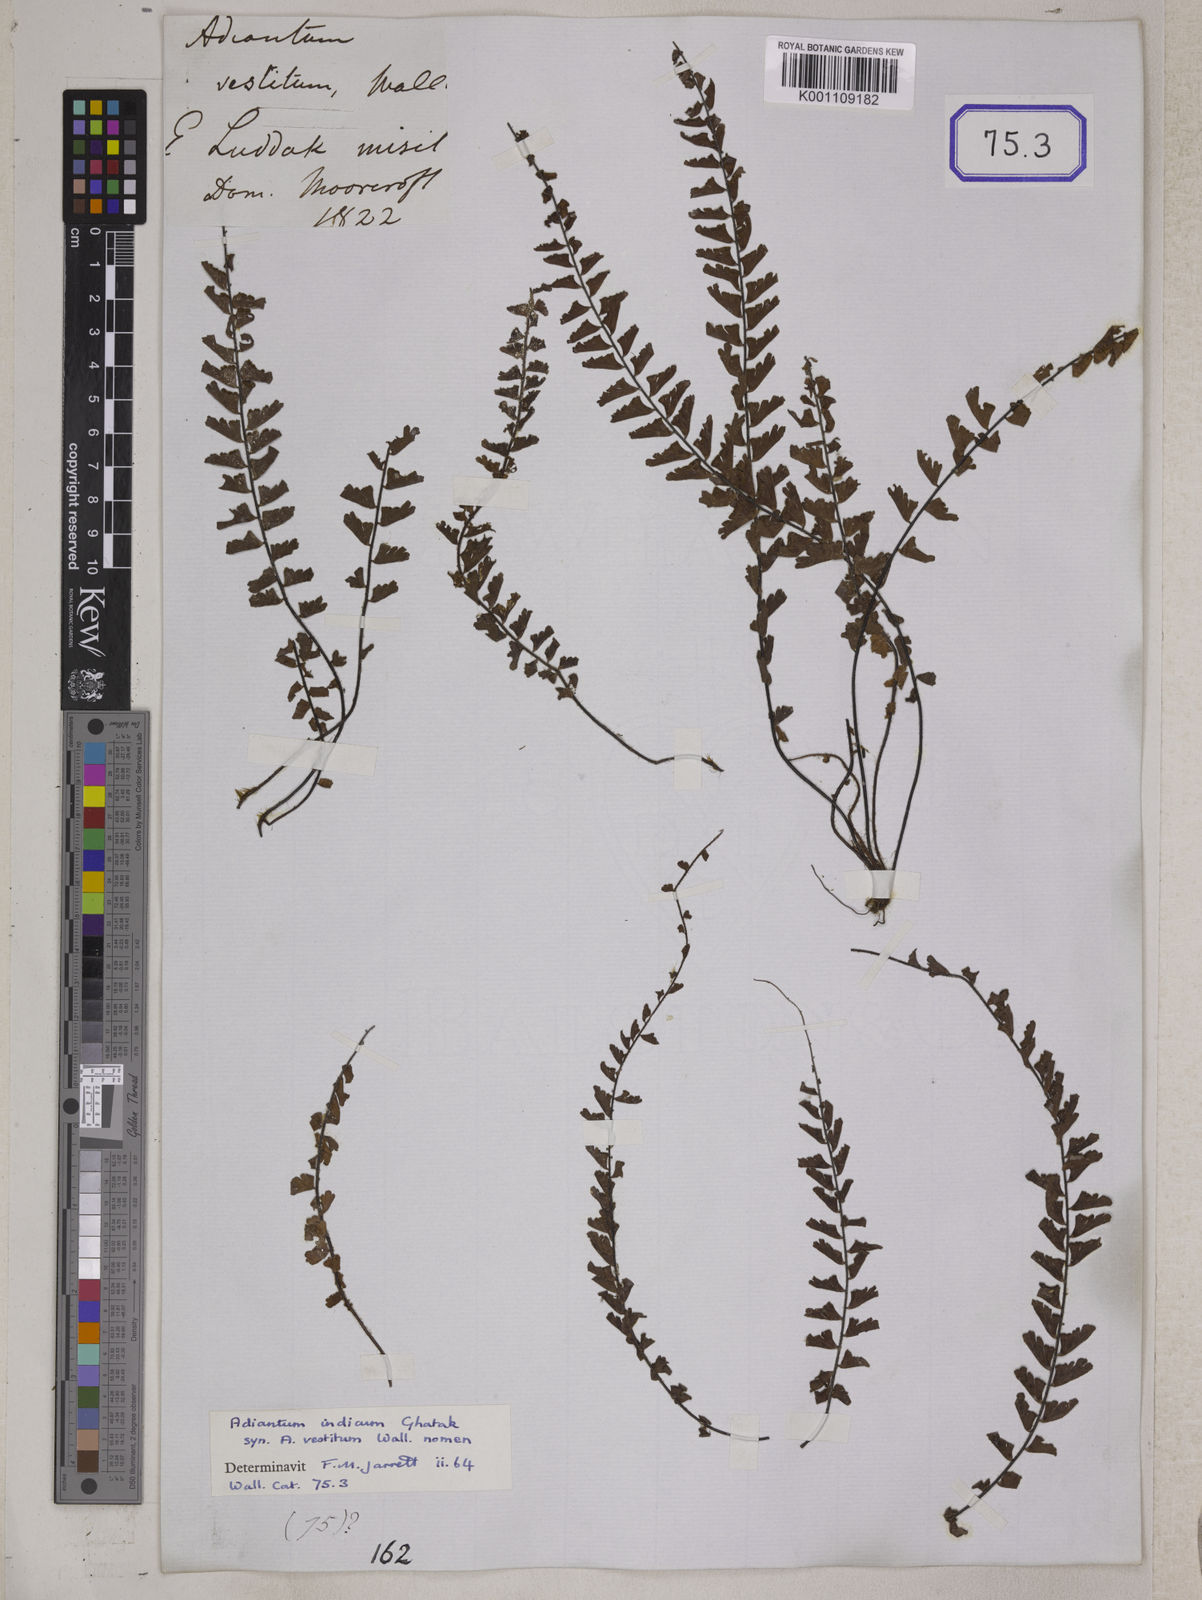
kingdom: Plantae
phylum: Tracheophyta
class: Polypodiopsida
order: Polypodiales
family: Pteridaceae
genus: Adiantum
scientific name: Adiantum incisum
